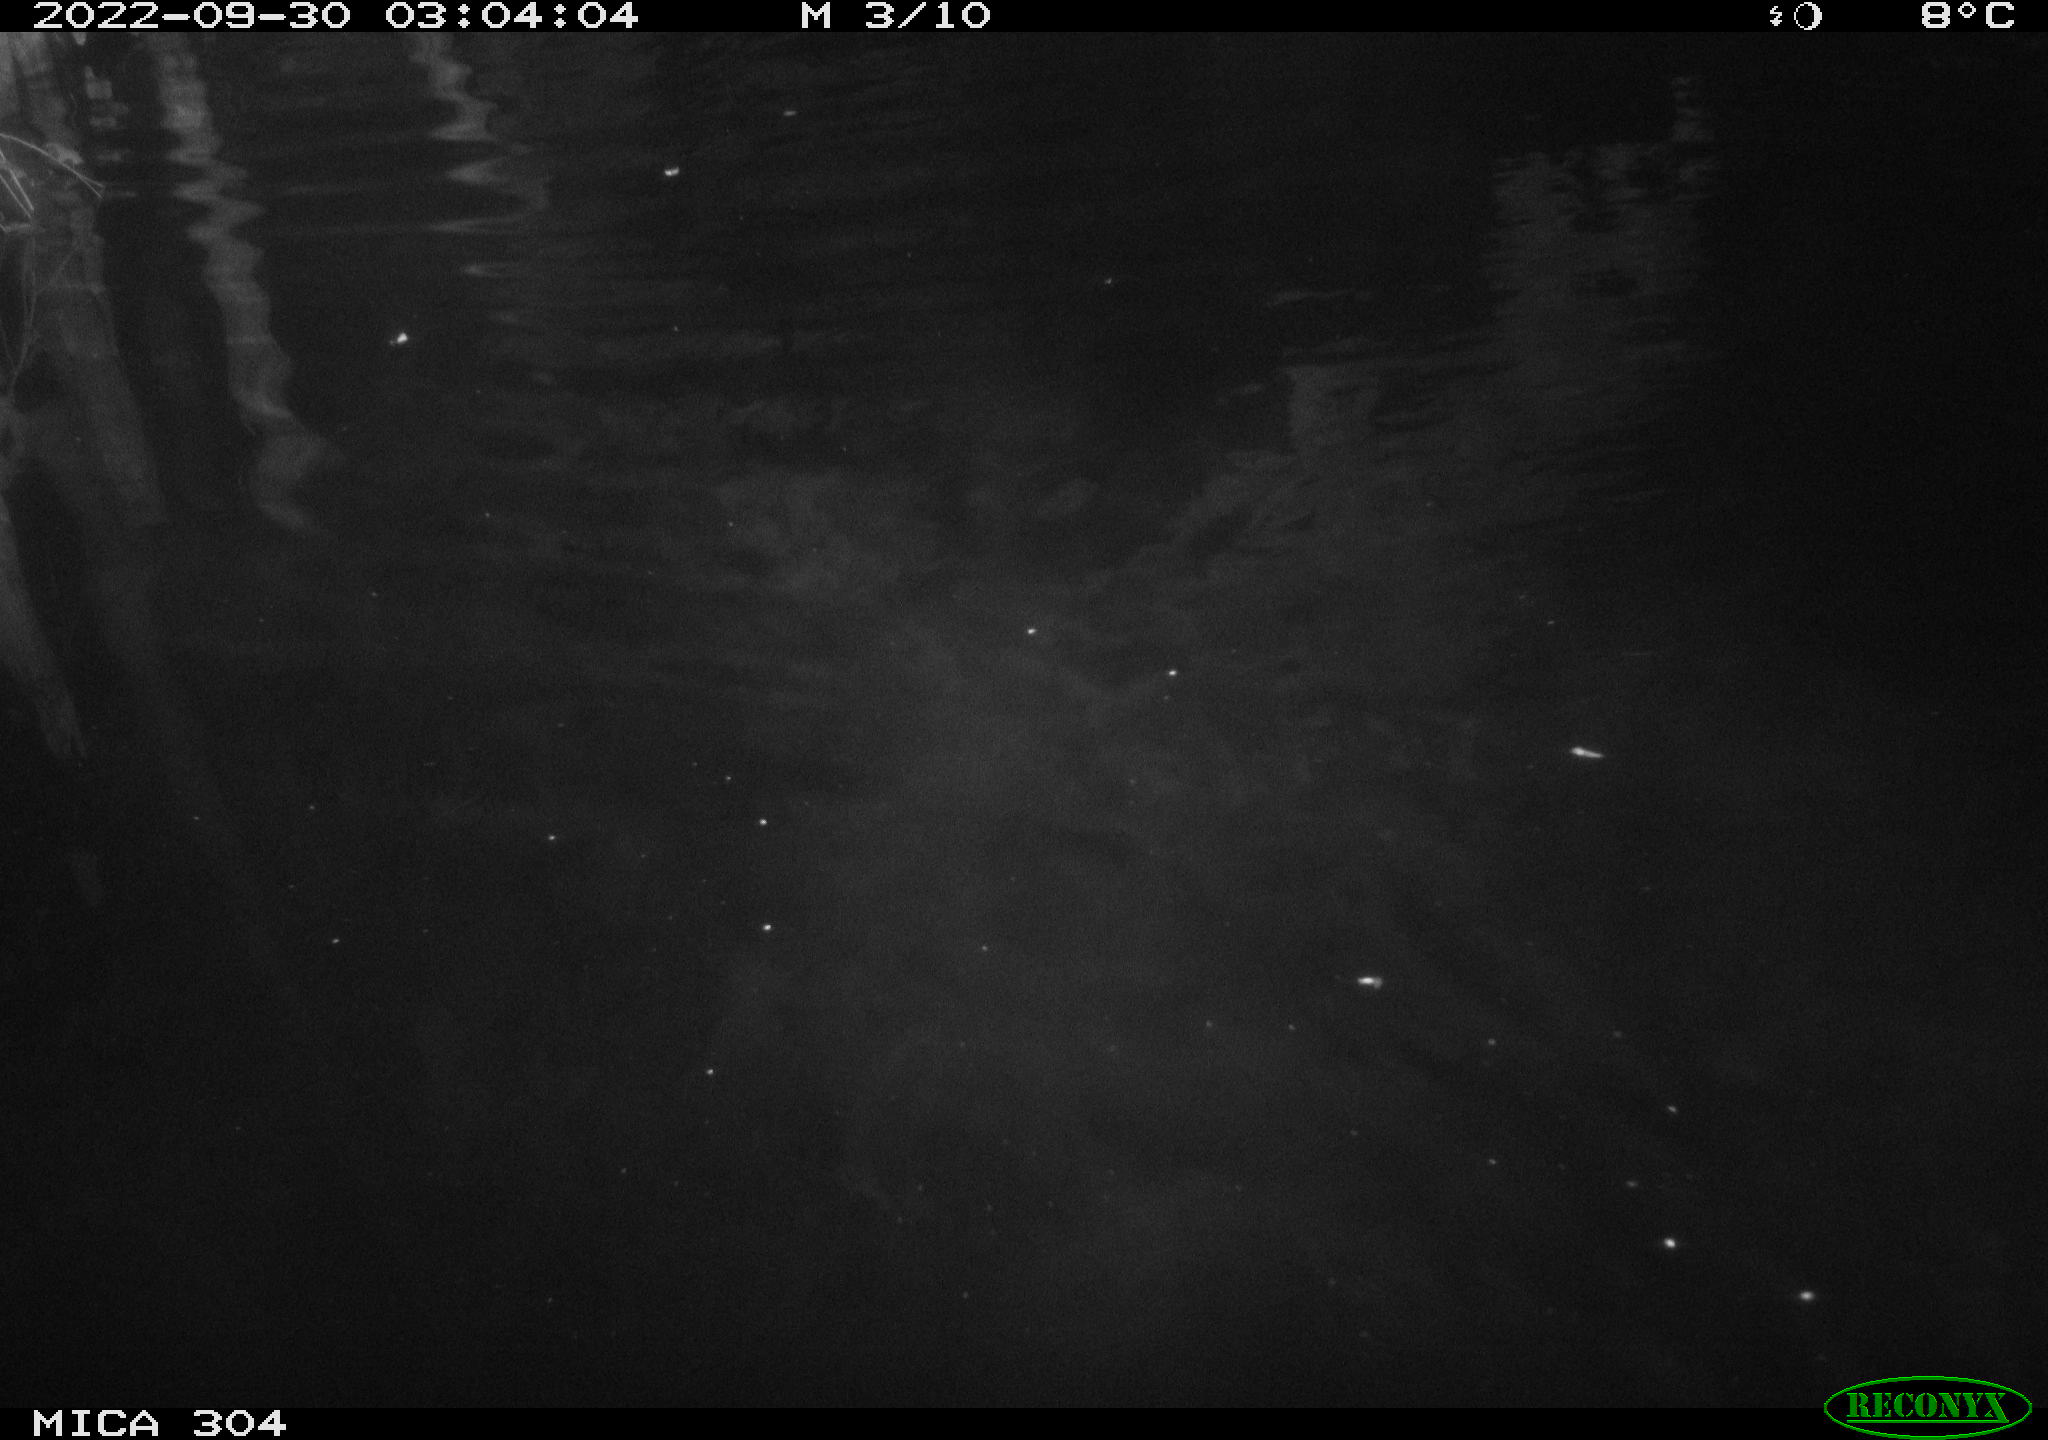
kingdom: Animalia
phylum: Chordata
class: Mammalia
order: Rodentia
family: Cricetidae
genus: Ondatra
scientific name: Ondatra zibethicus
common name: Muskrat
